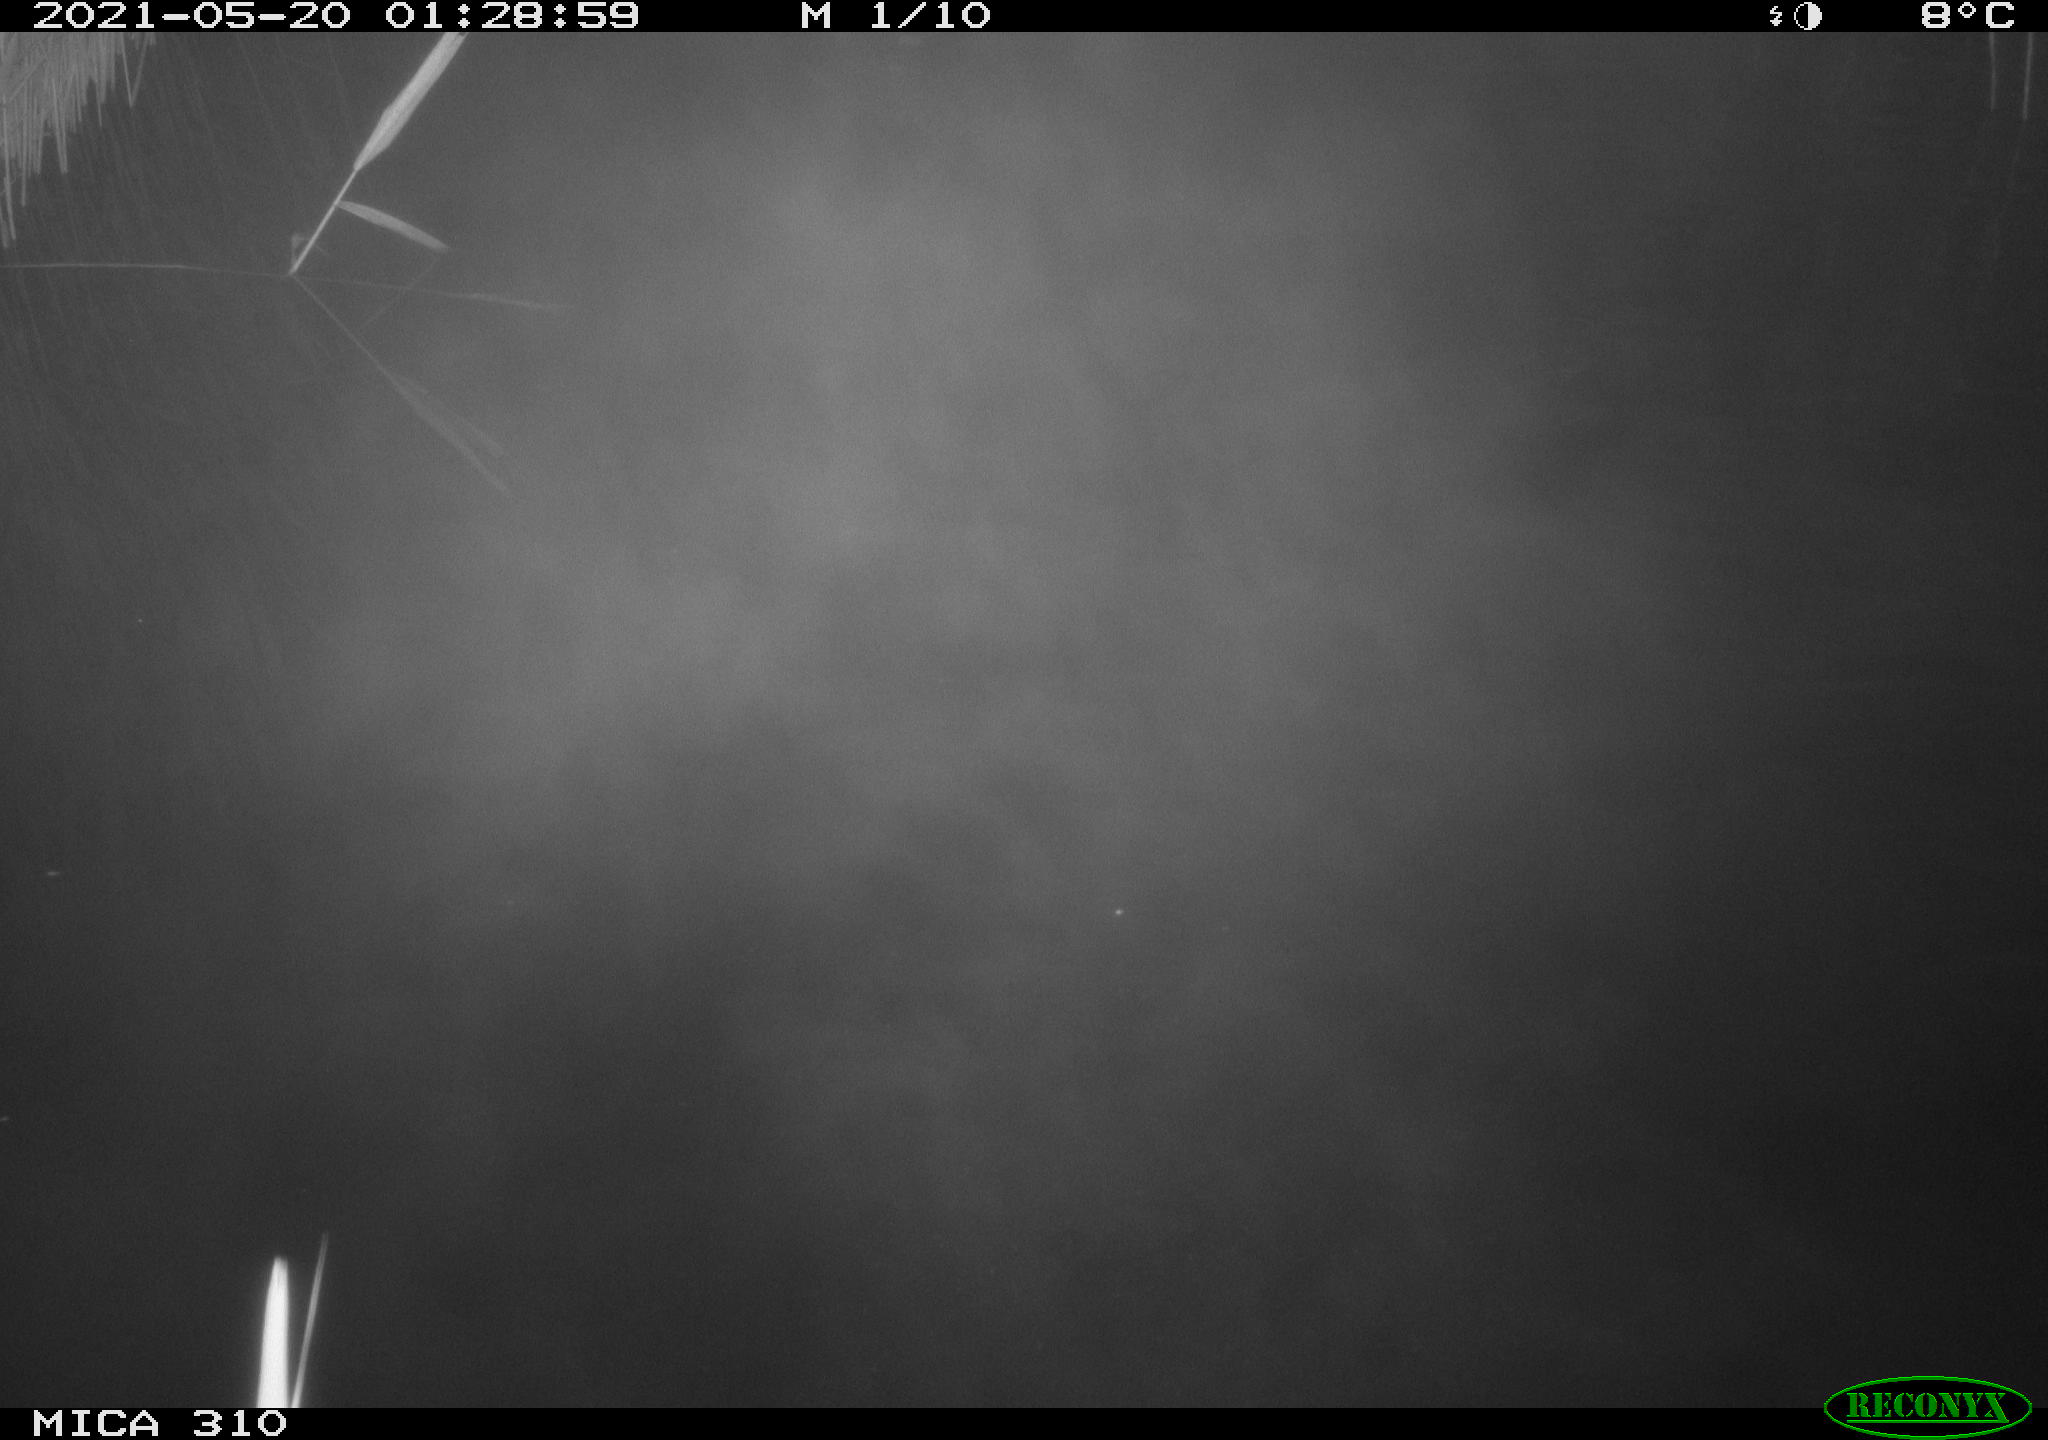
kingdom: Animalia
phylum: Chordata
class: Aves
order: Anseriformes
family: Anatidae
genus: Anas
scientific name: Anas platyrhynchos
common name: Mallard
